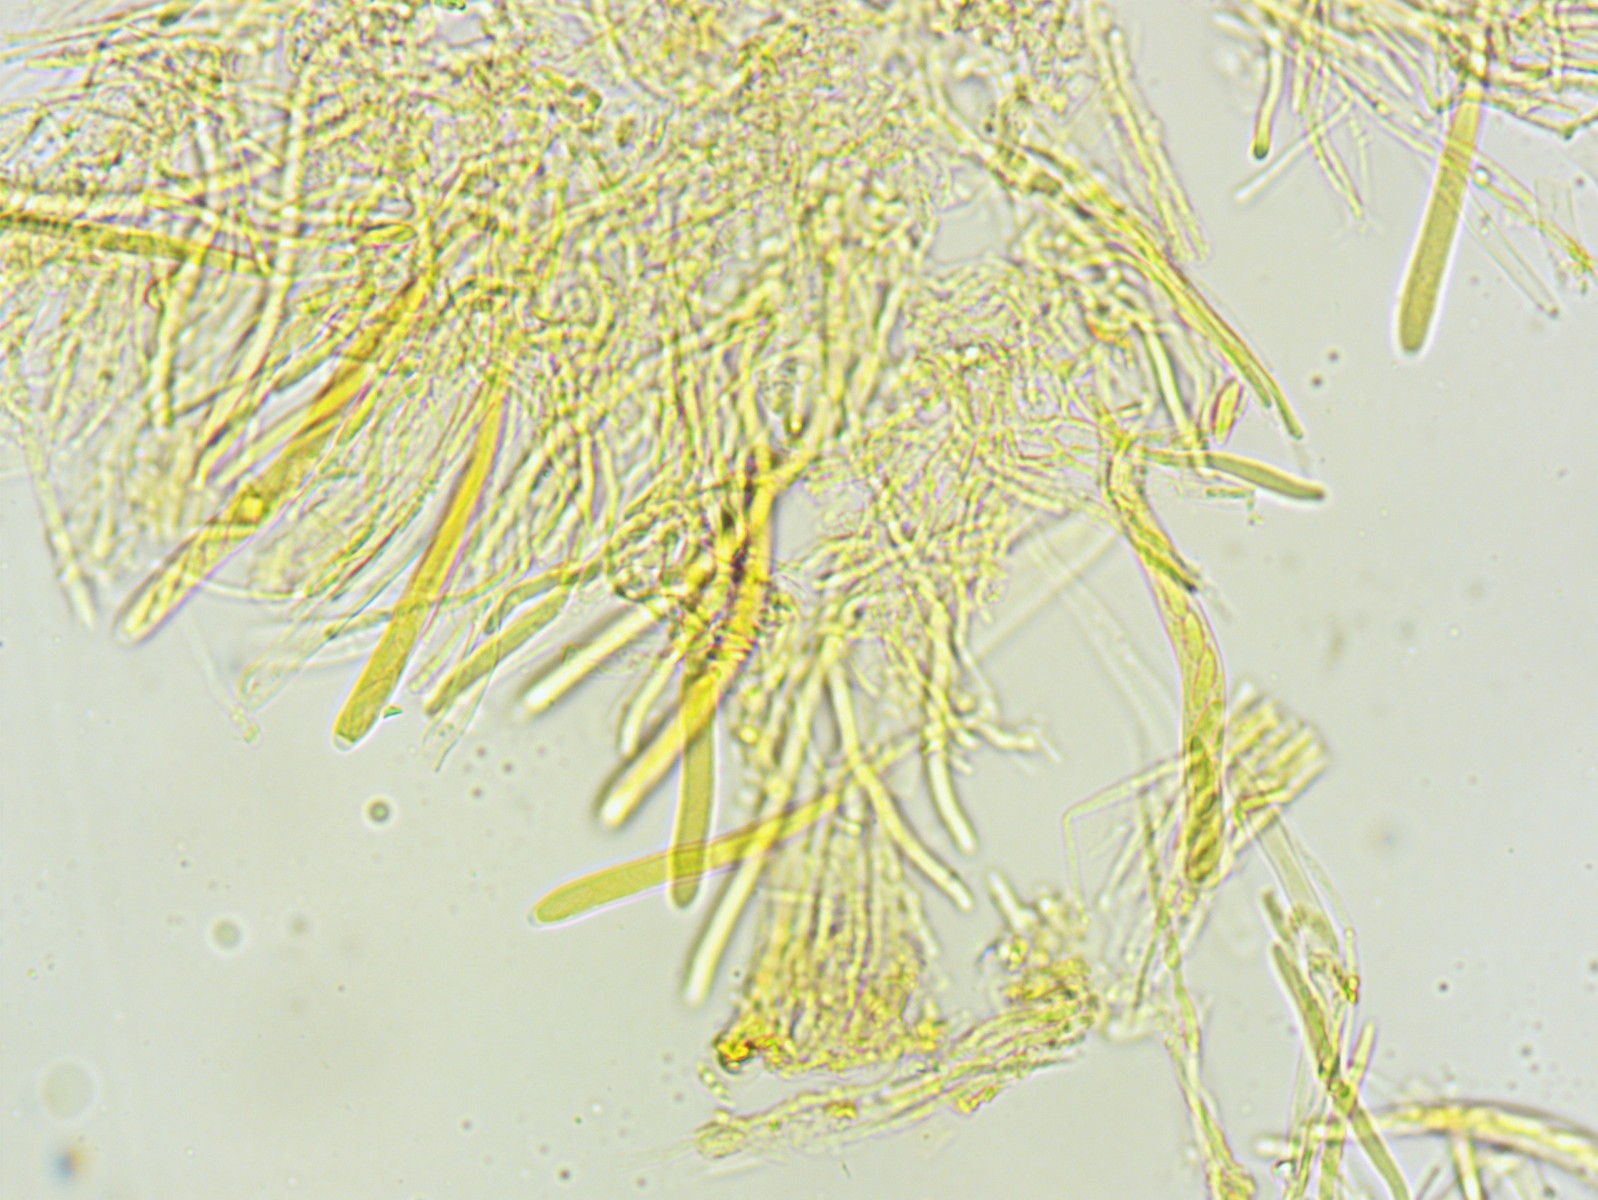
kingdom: Fungi
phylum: Ascomycota
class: Leotiomycetes
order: Helotiales
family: Helotiaceae
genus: Hymenoscyphus
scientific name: Hymenoscyphus imberbis
